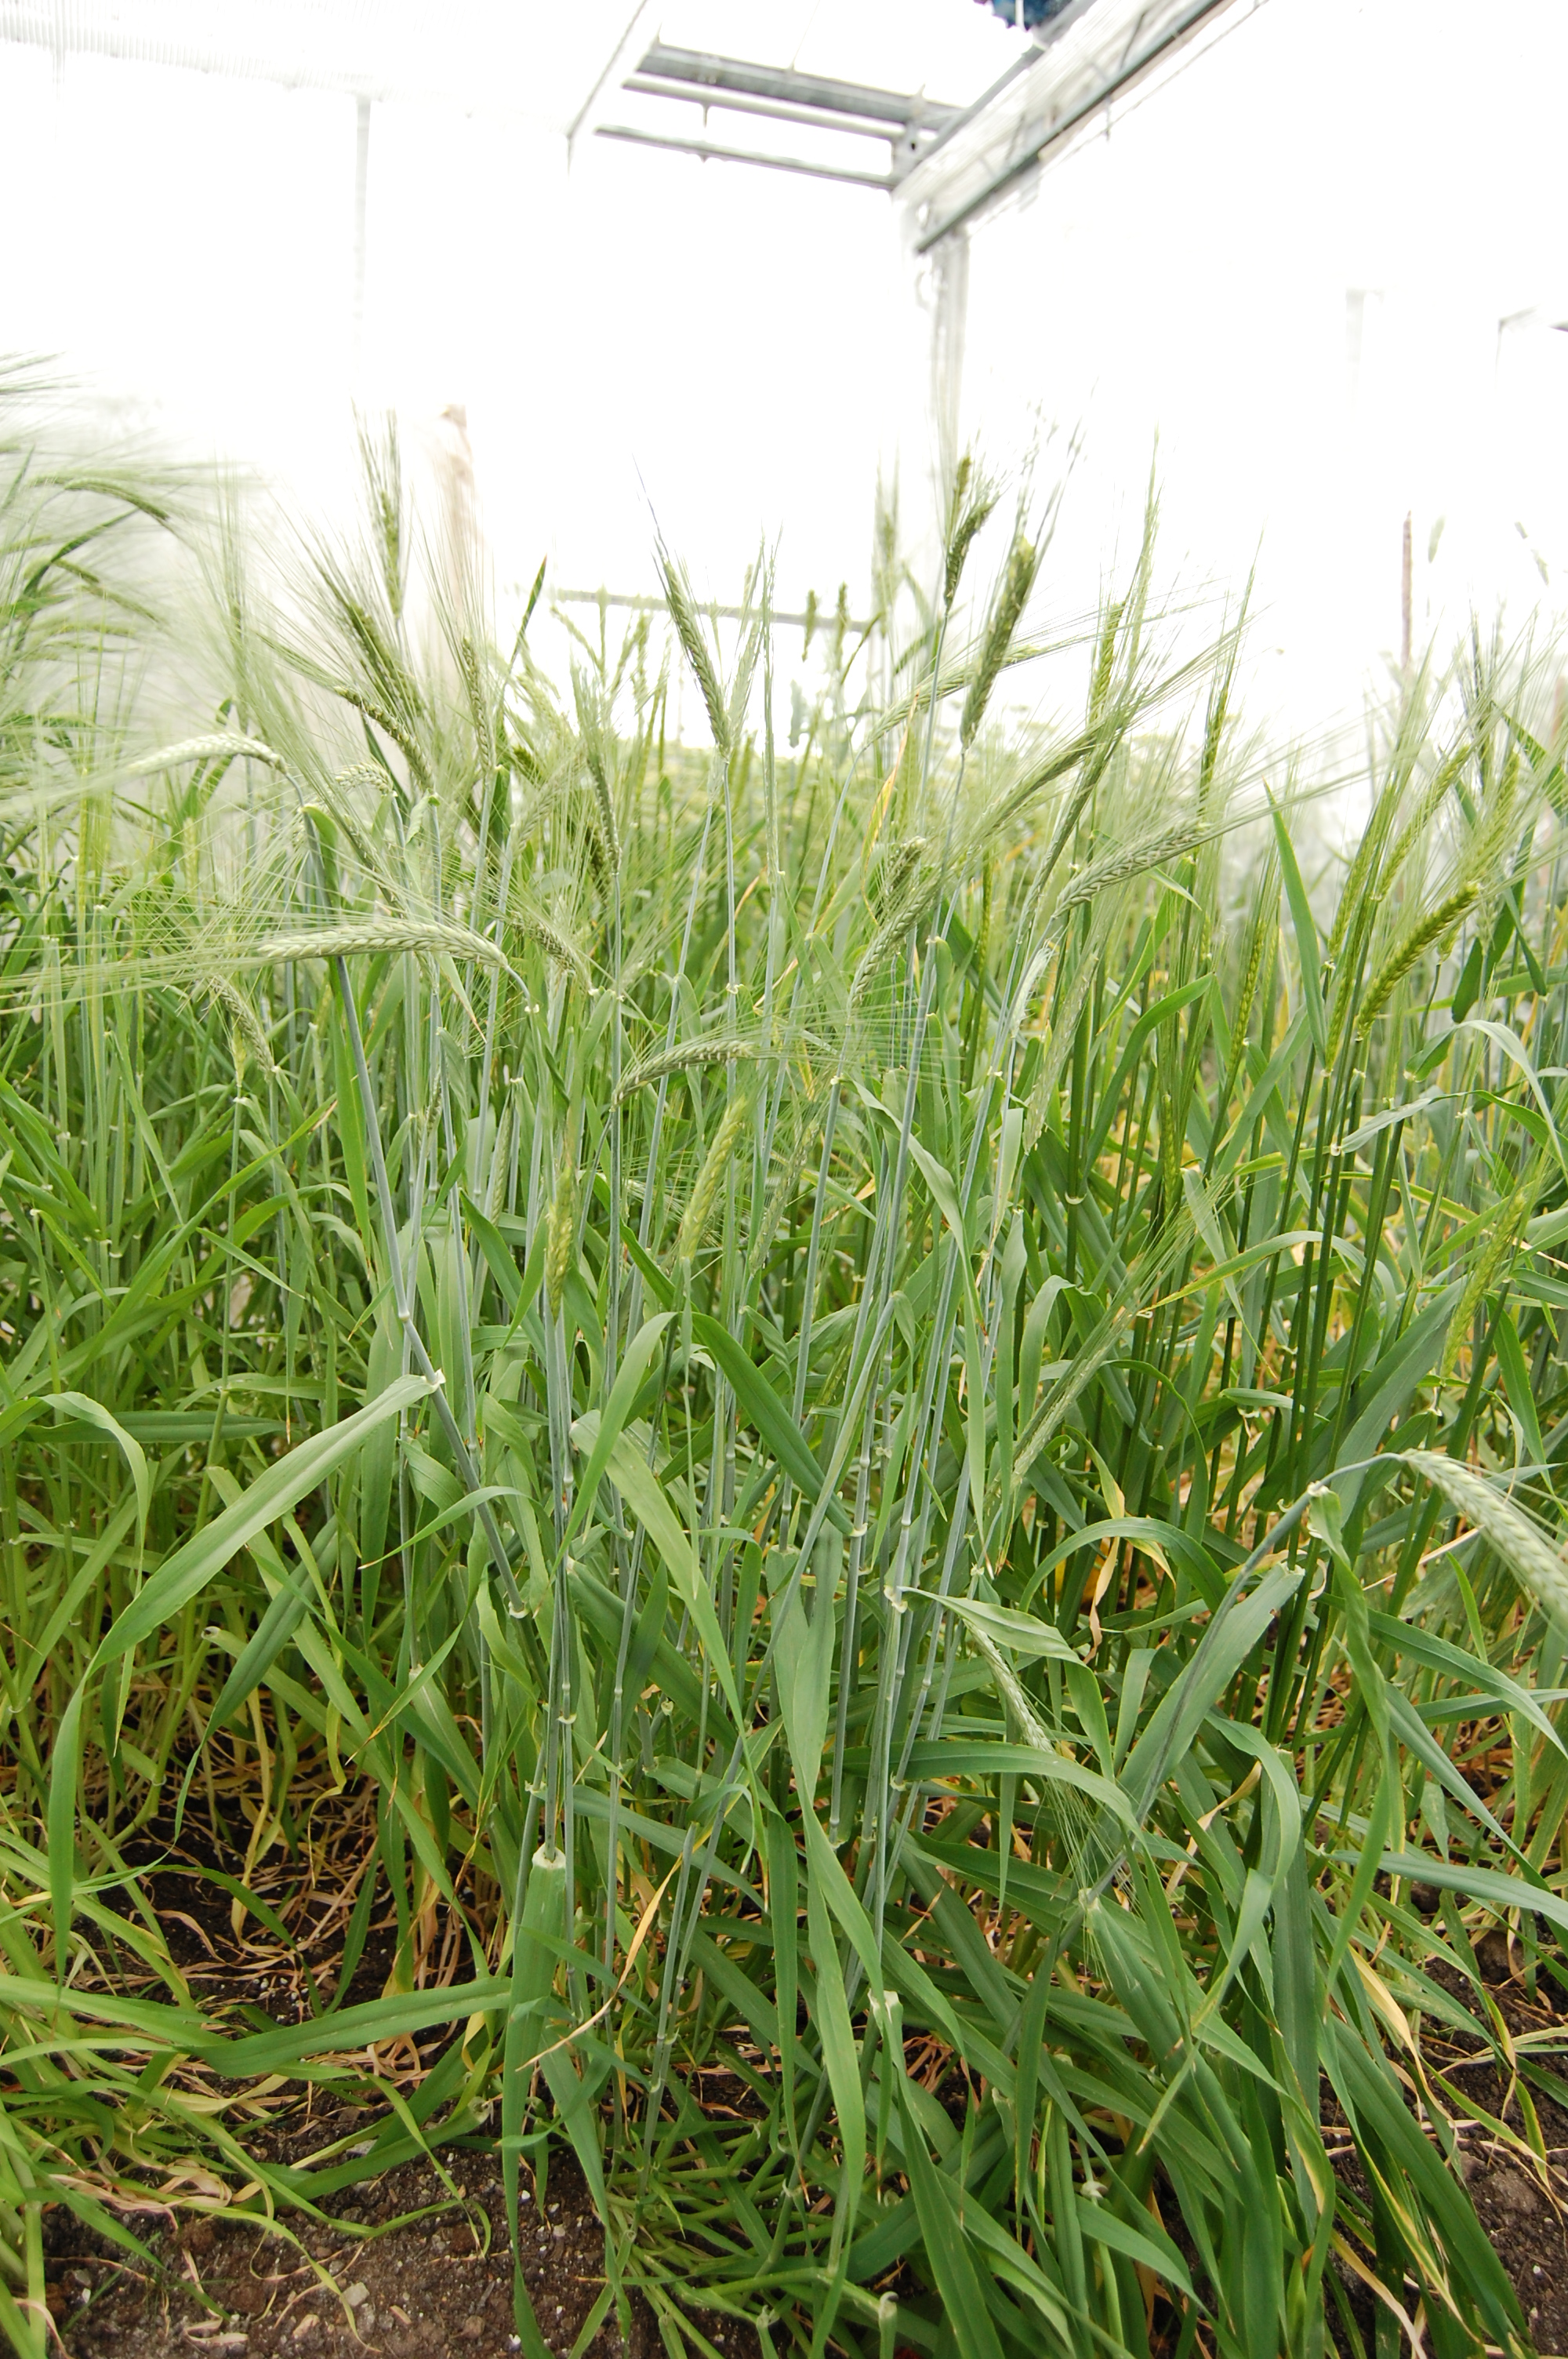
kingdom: Plantae
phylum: Tracheophyta
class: Liliopsida
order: Poales
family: Poaceae
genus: Hordeum
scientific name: Hordeum vulgare
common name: Common barley
